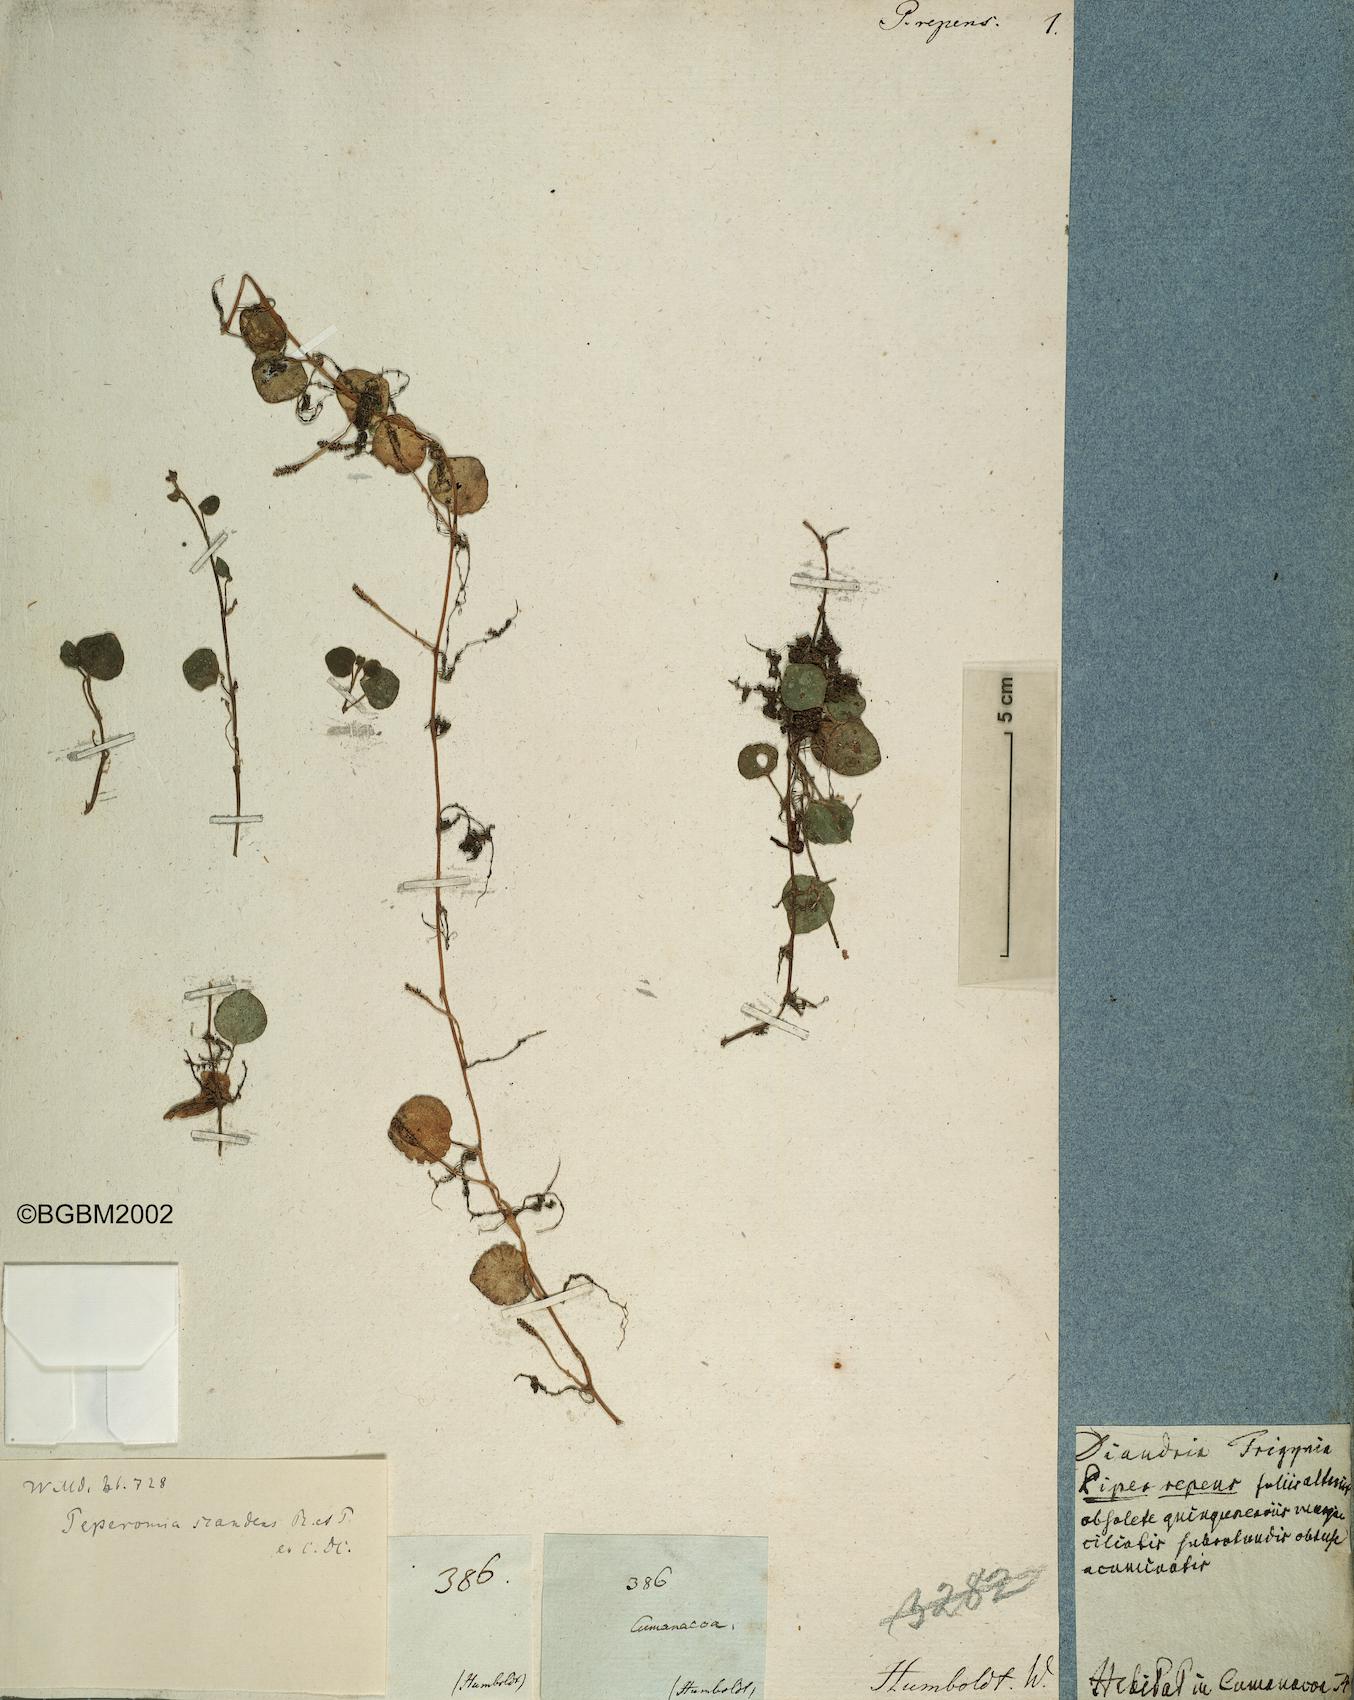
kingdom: Plantae
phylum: Tracheophyta
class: Magnoliopsida
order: Piperales
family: Piperaceae
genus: Peperomia
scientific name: Peperomia serpens
